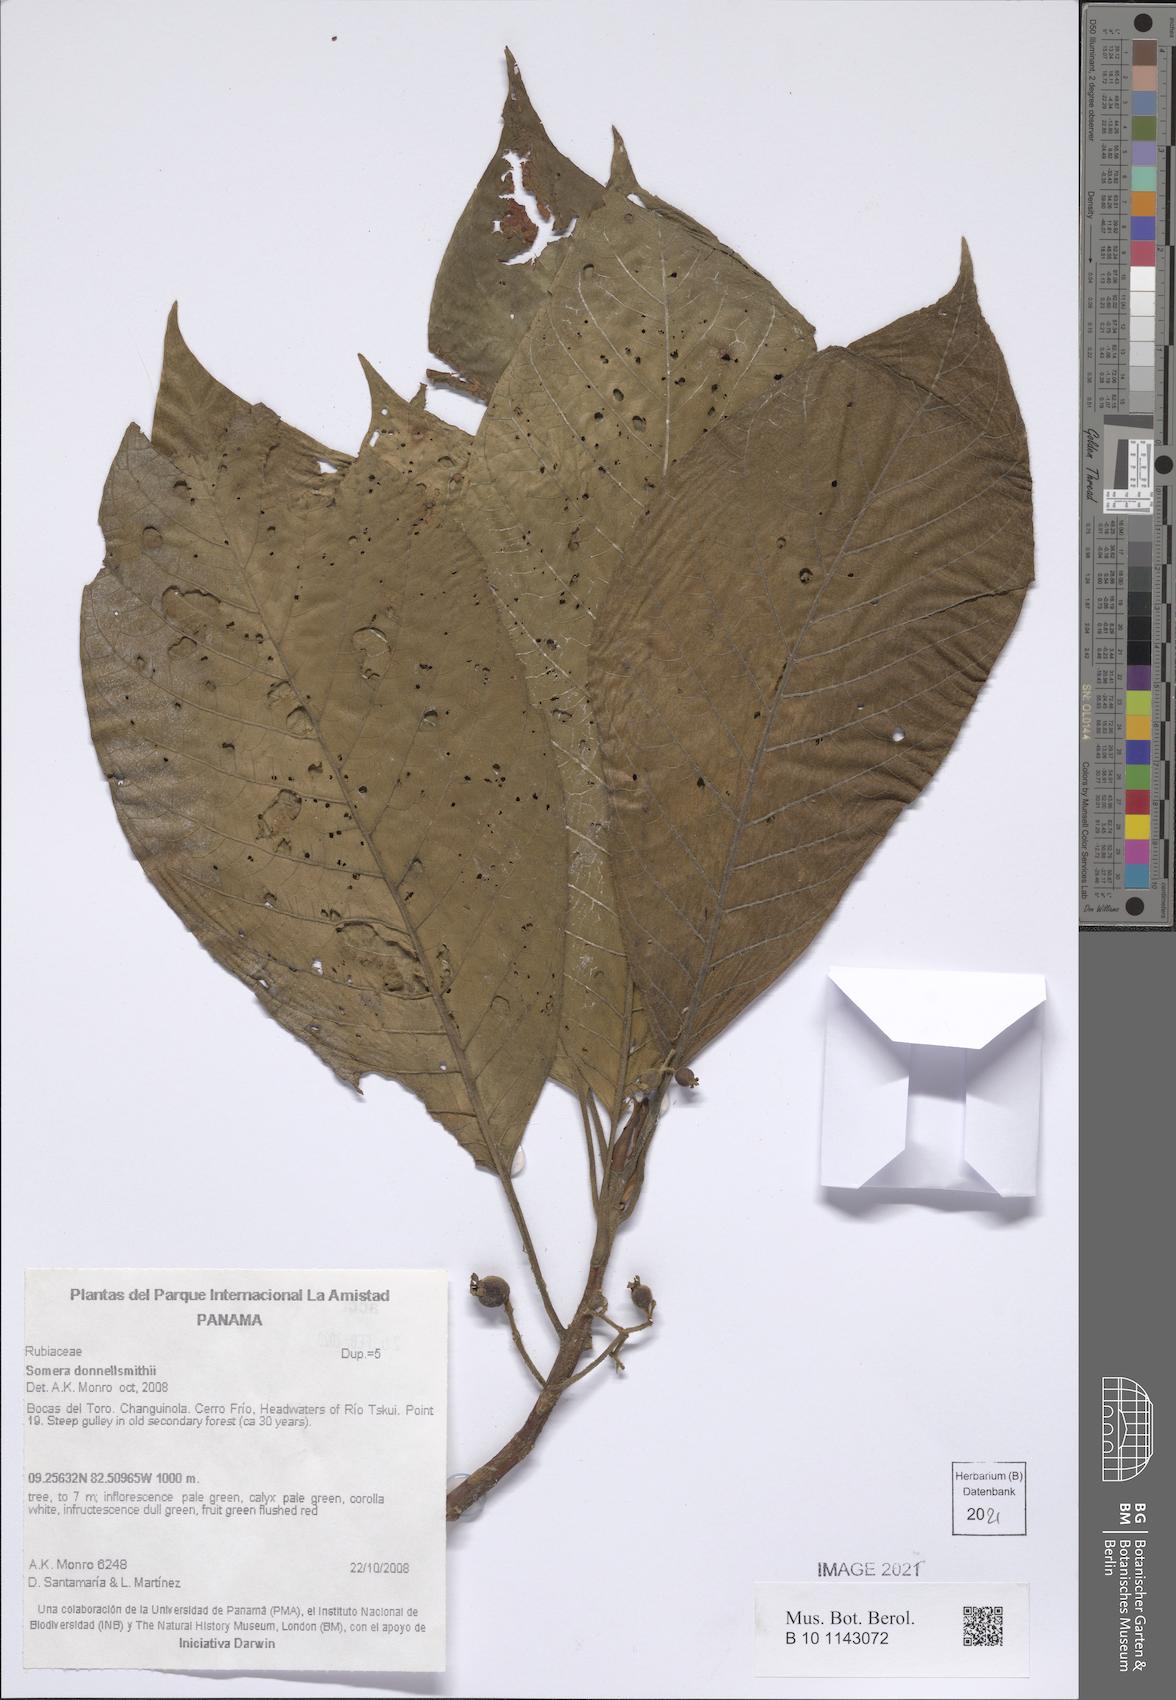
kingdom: Plantae
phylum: Tracheophyta
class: Magnoliopsida
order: Gentianales
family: Rubiaceae
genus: Sommera
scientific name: Sommera donnell-smithii
